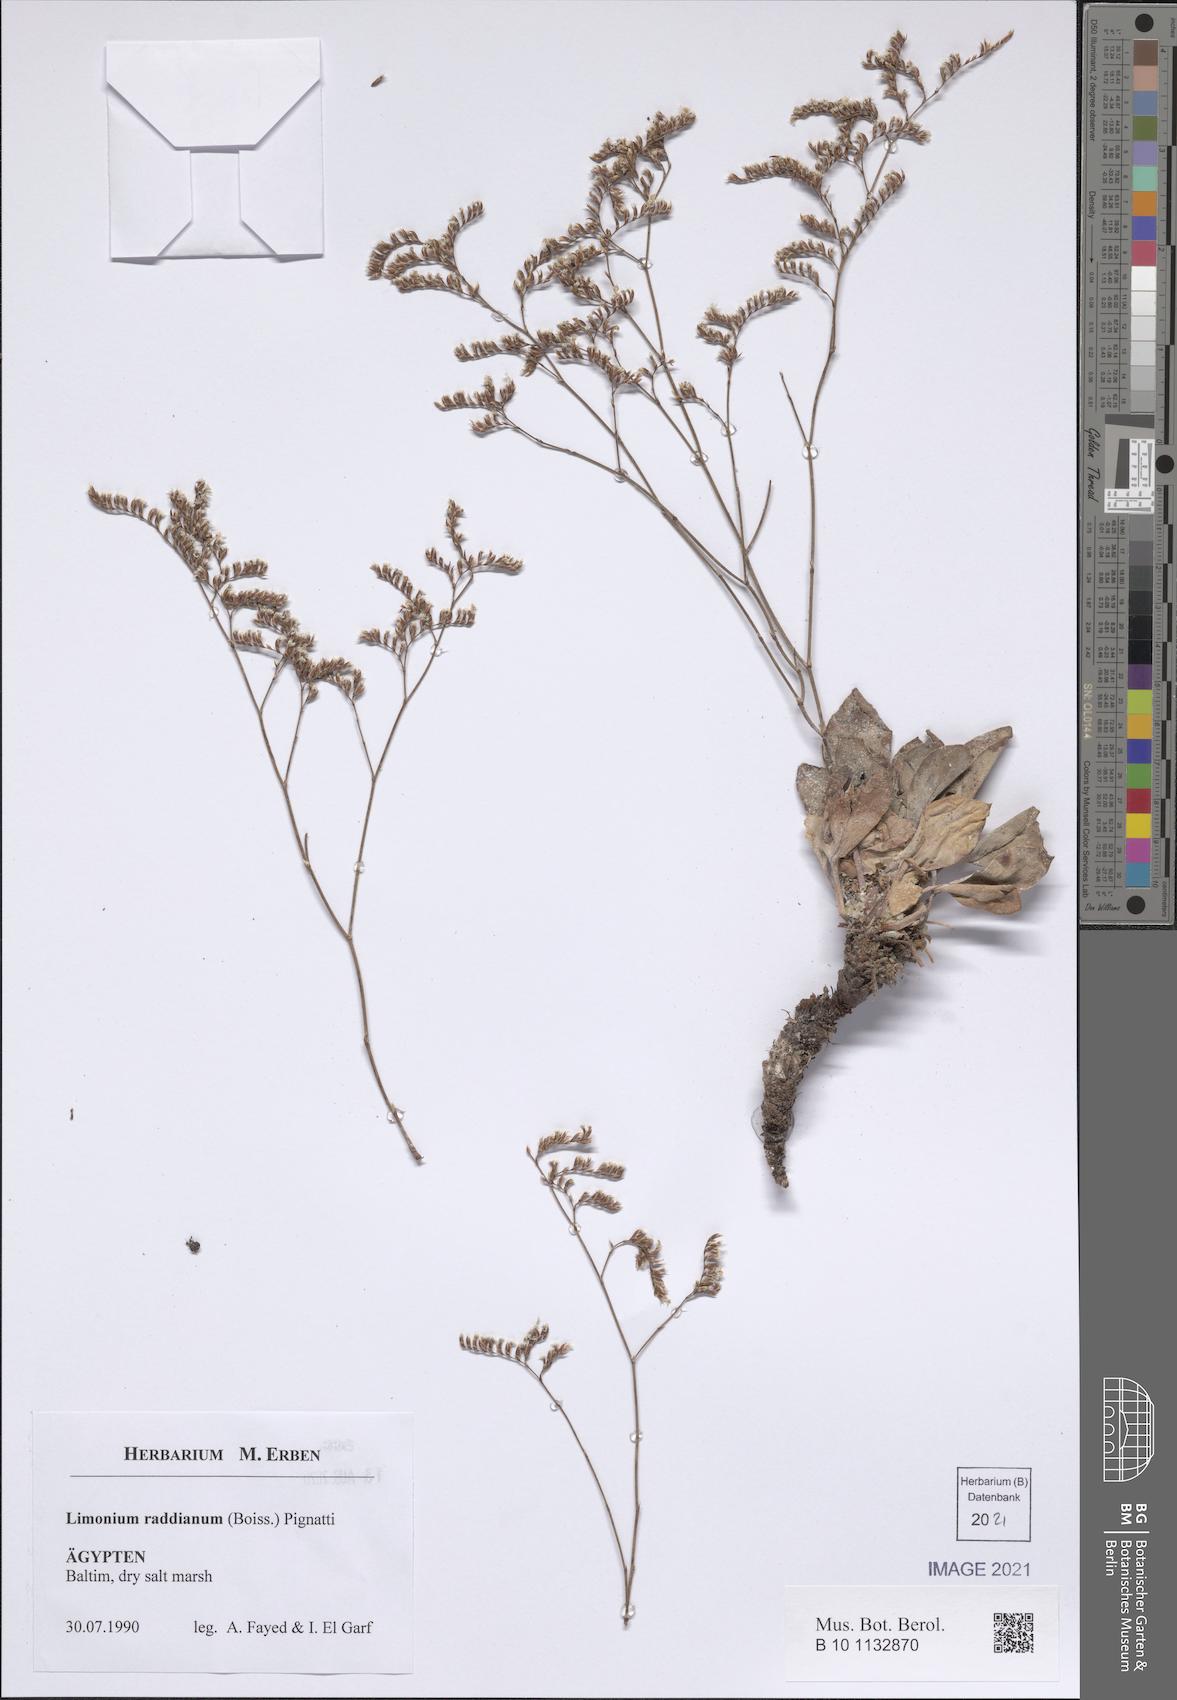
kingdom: Plantae
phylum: Tracheophyta
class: Magnoliopsida
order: Caryophyllales
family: Plumbaginaceae
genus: Limonium
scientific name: Limonium raddianum
